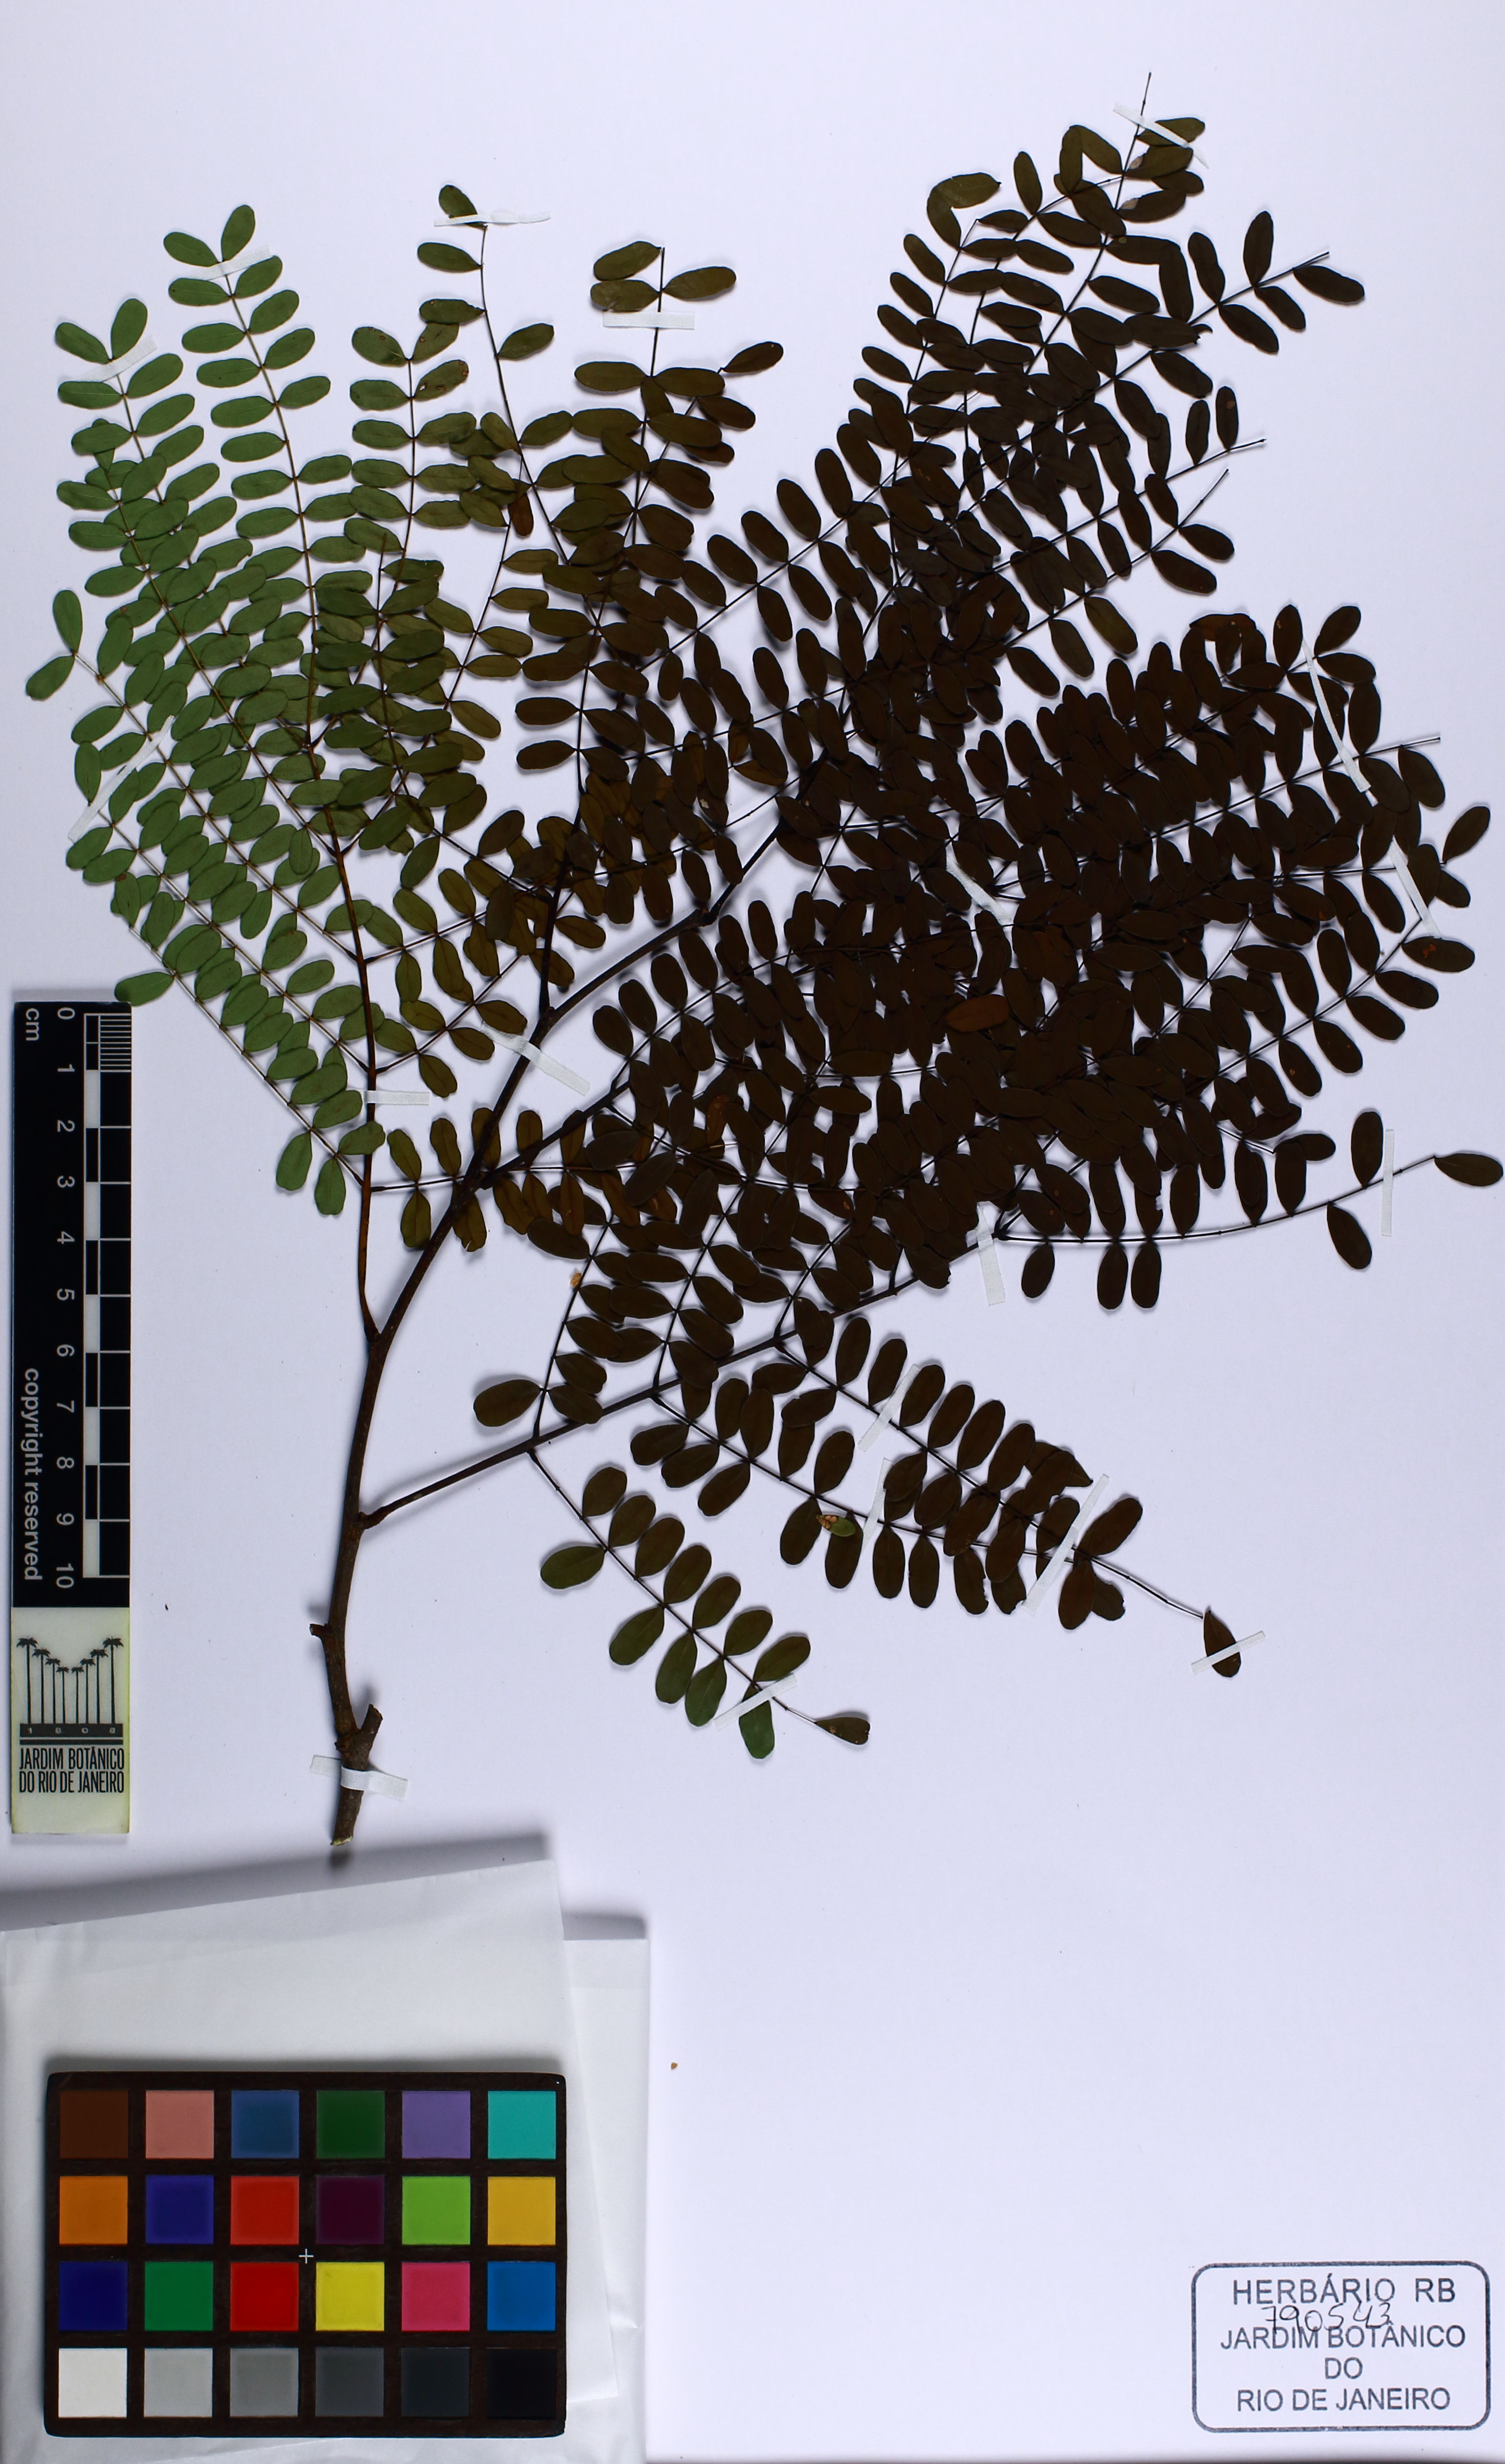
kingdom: Plantae
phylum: Tracheophyta
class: Magnoliopsida
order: Fabales
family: Fabaceae
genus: Libidibia
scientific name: Libidibia ferrea
